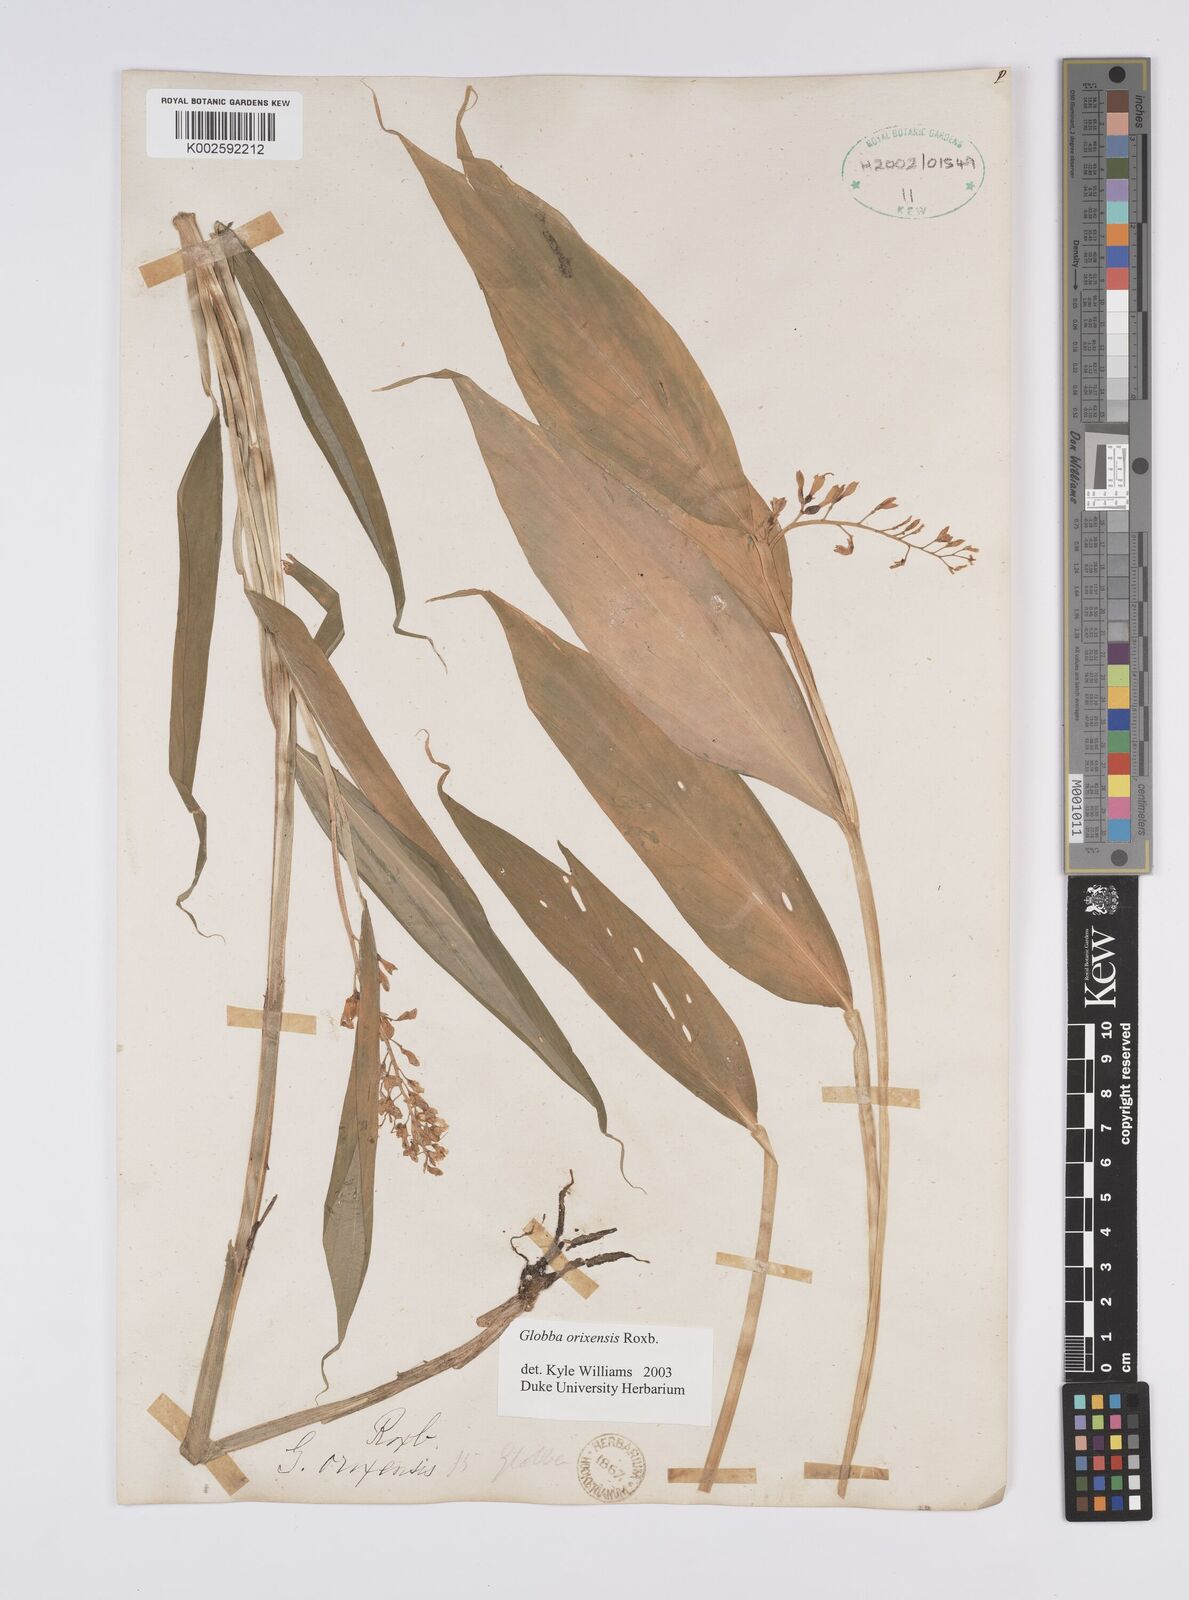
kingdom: Plantae
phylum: Tracheophyta
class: Liliopsida
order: Zingiberales
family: Zingiberaceae
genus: Globba
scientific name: Globba orixensis
